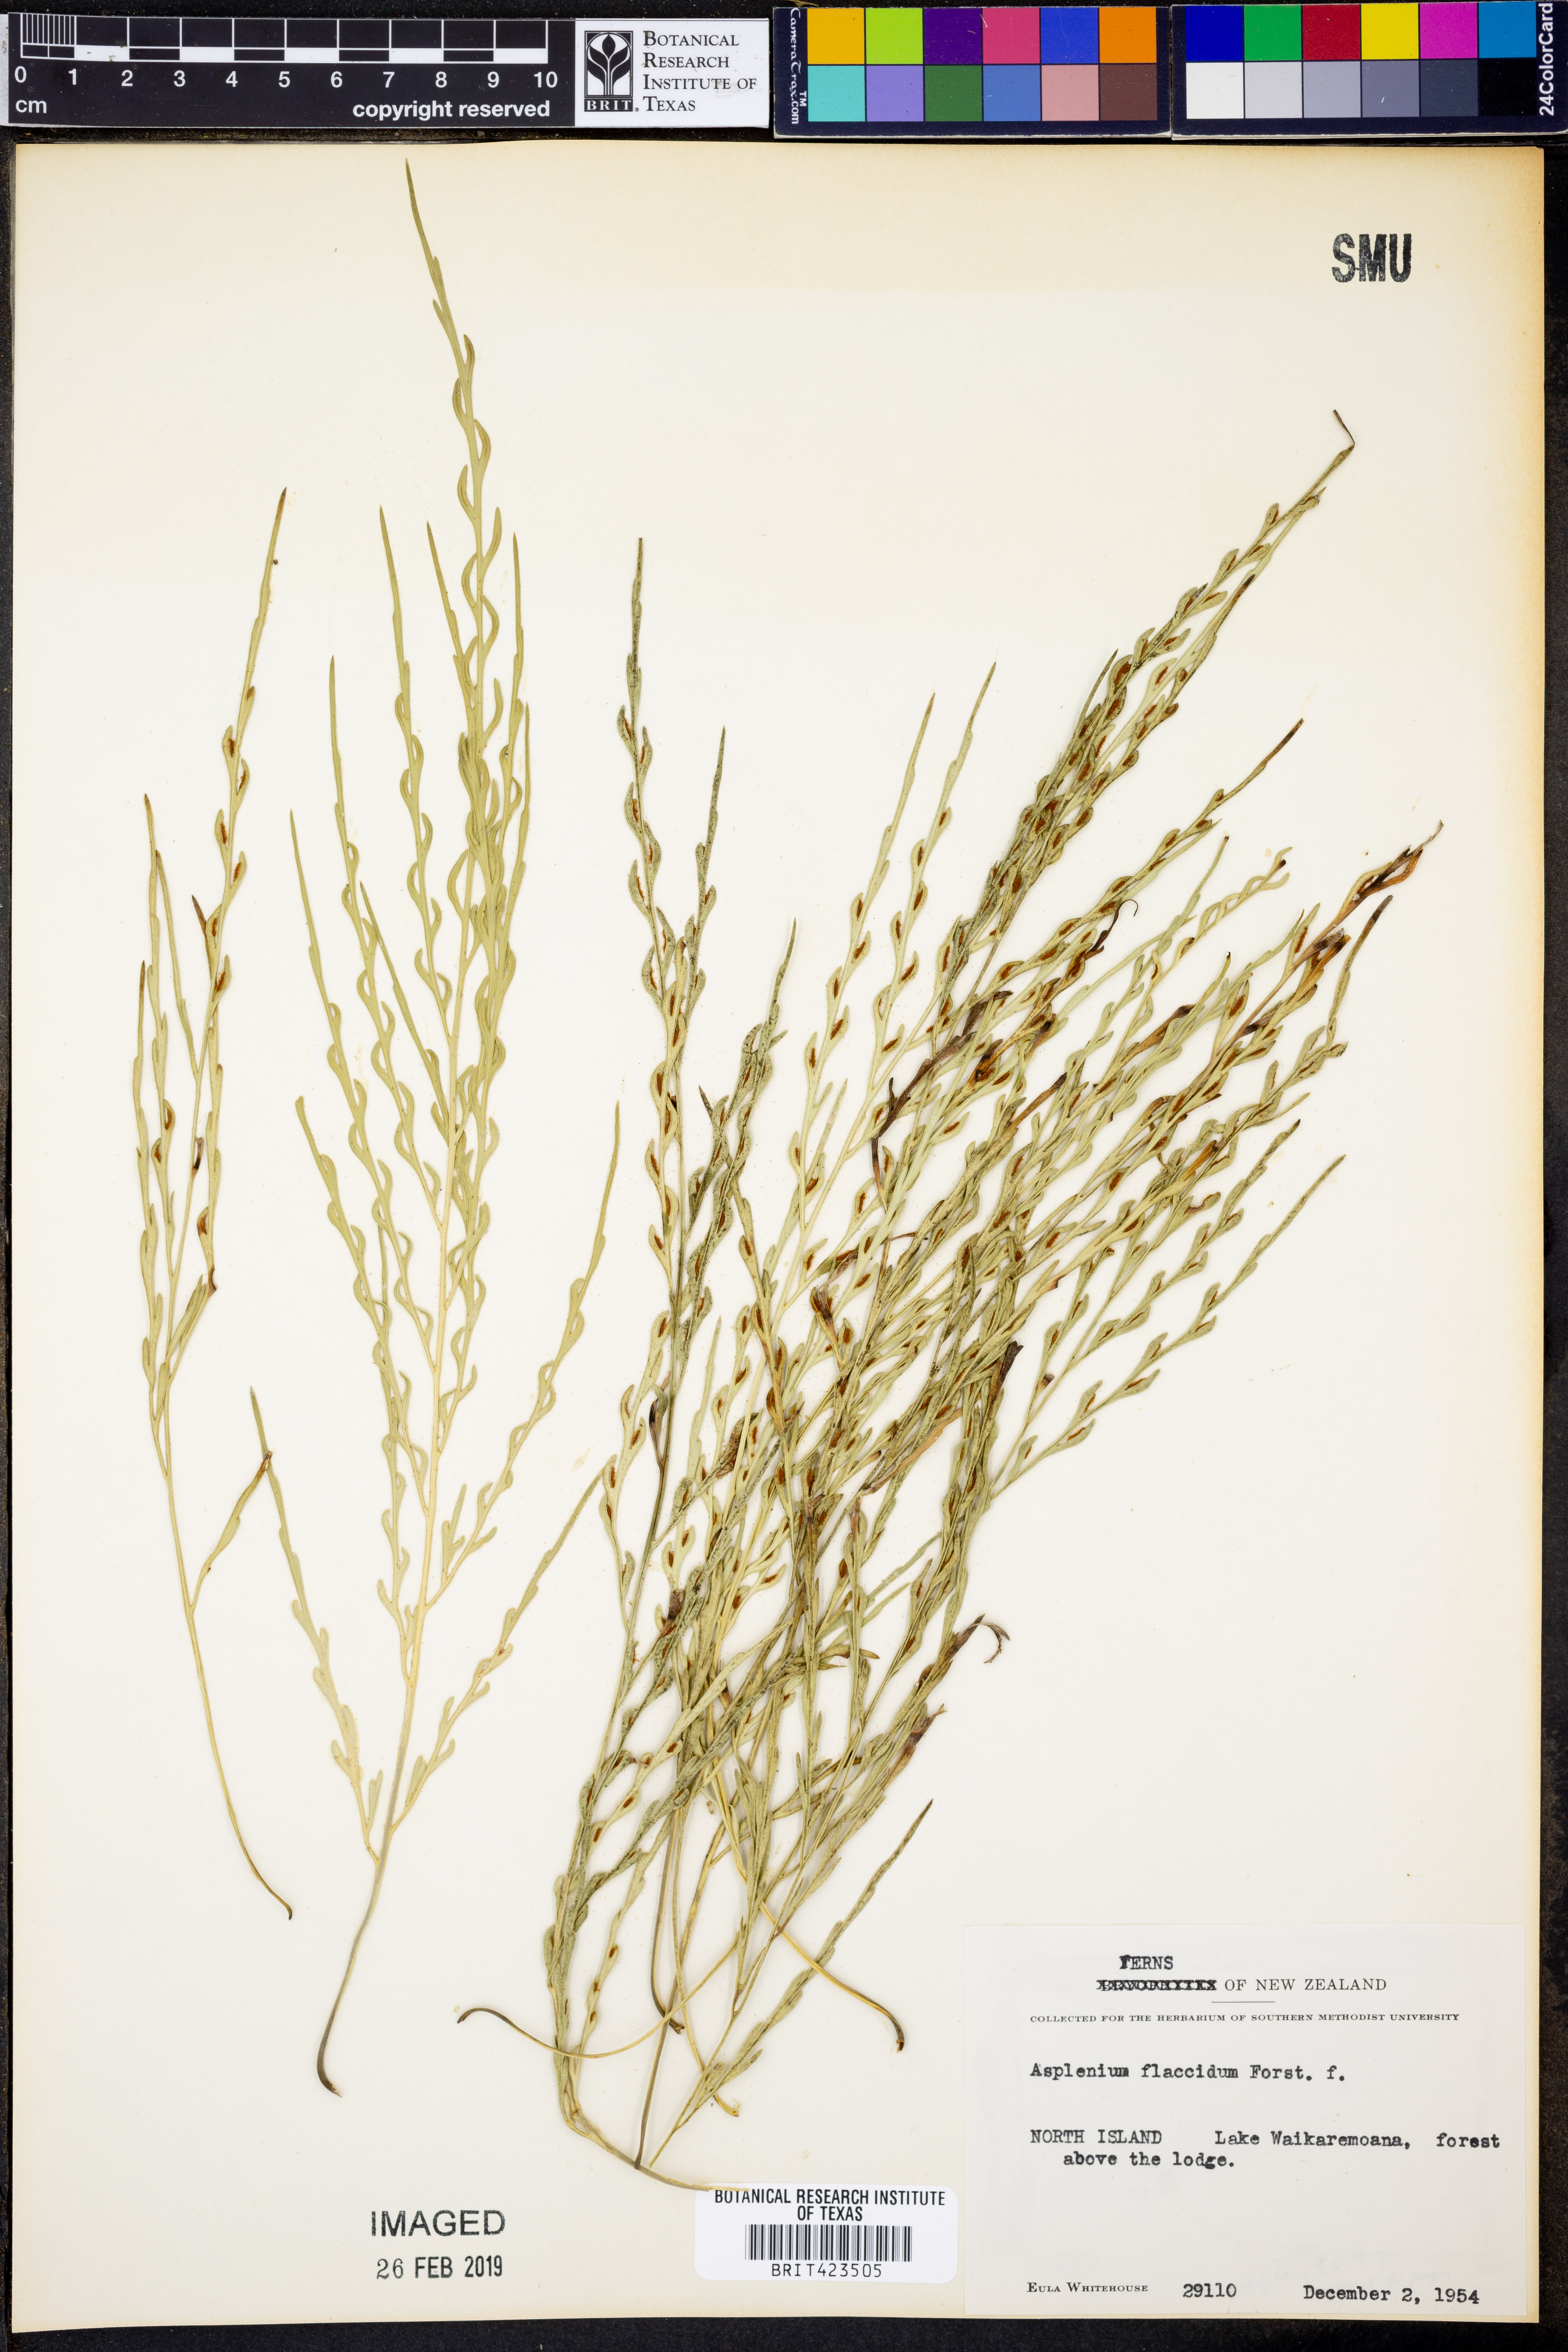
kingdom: Plantae
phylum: Tracheophyta
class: Polypodiopsida
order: Polypodiales
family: Aspleniaceae
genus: Asplenium
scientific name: Asplenium flaccidum
